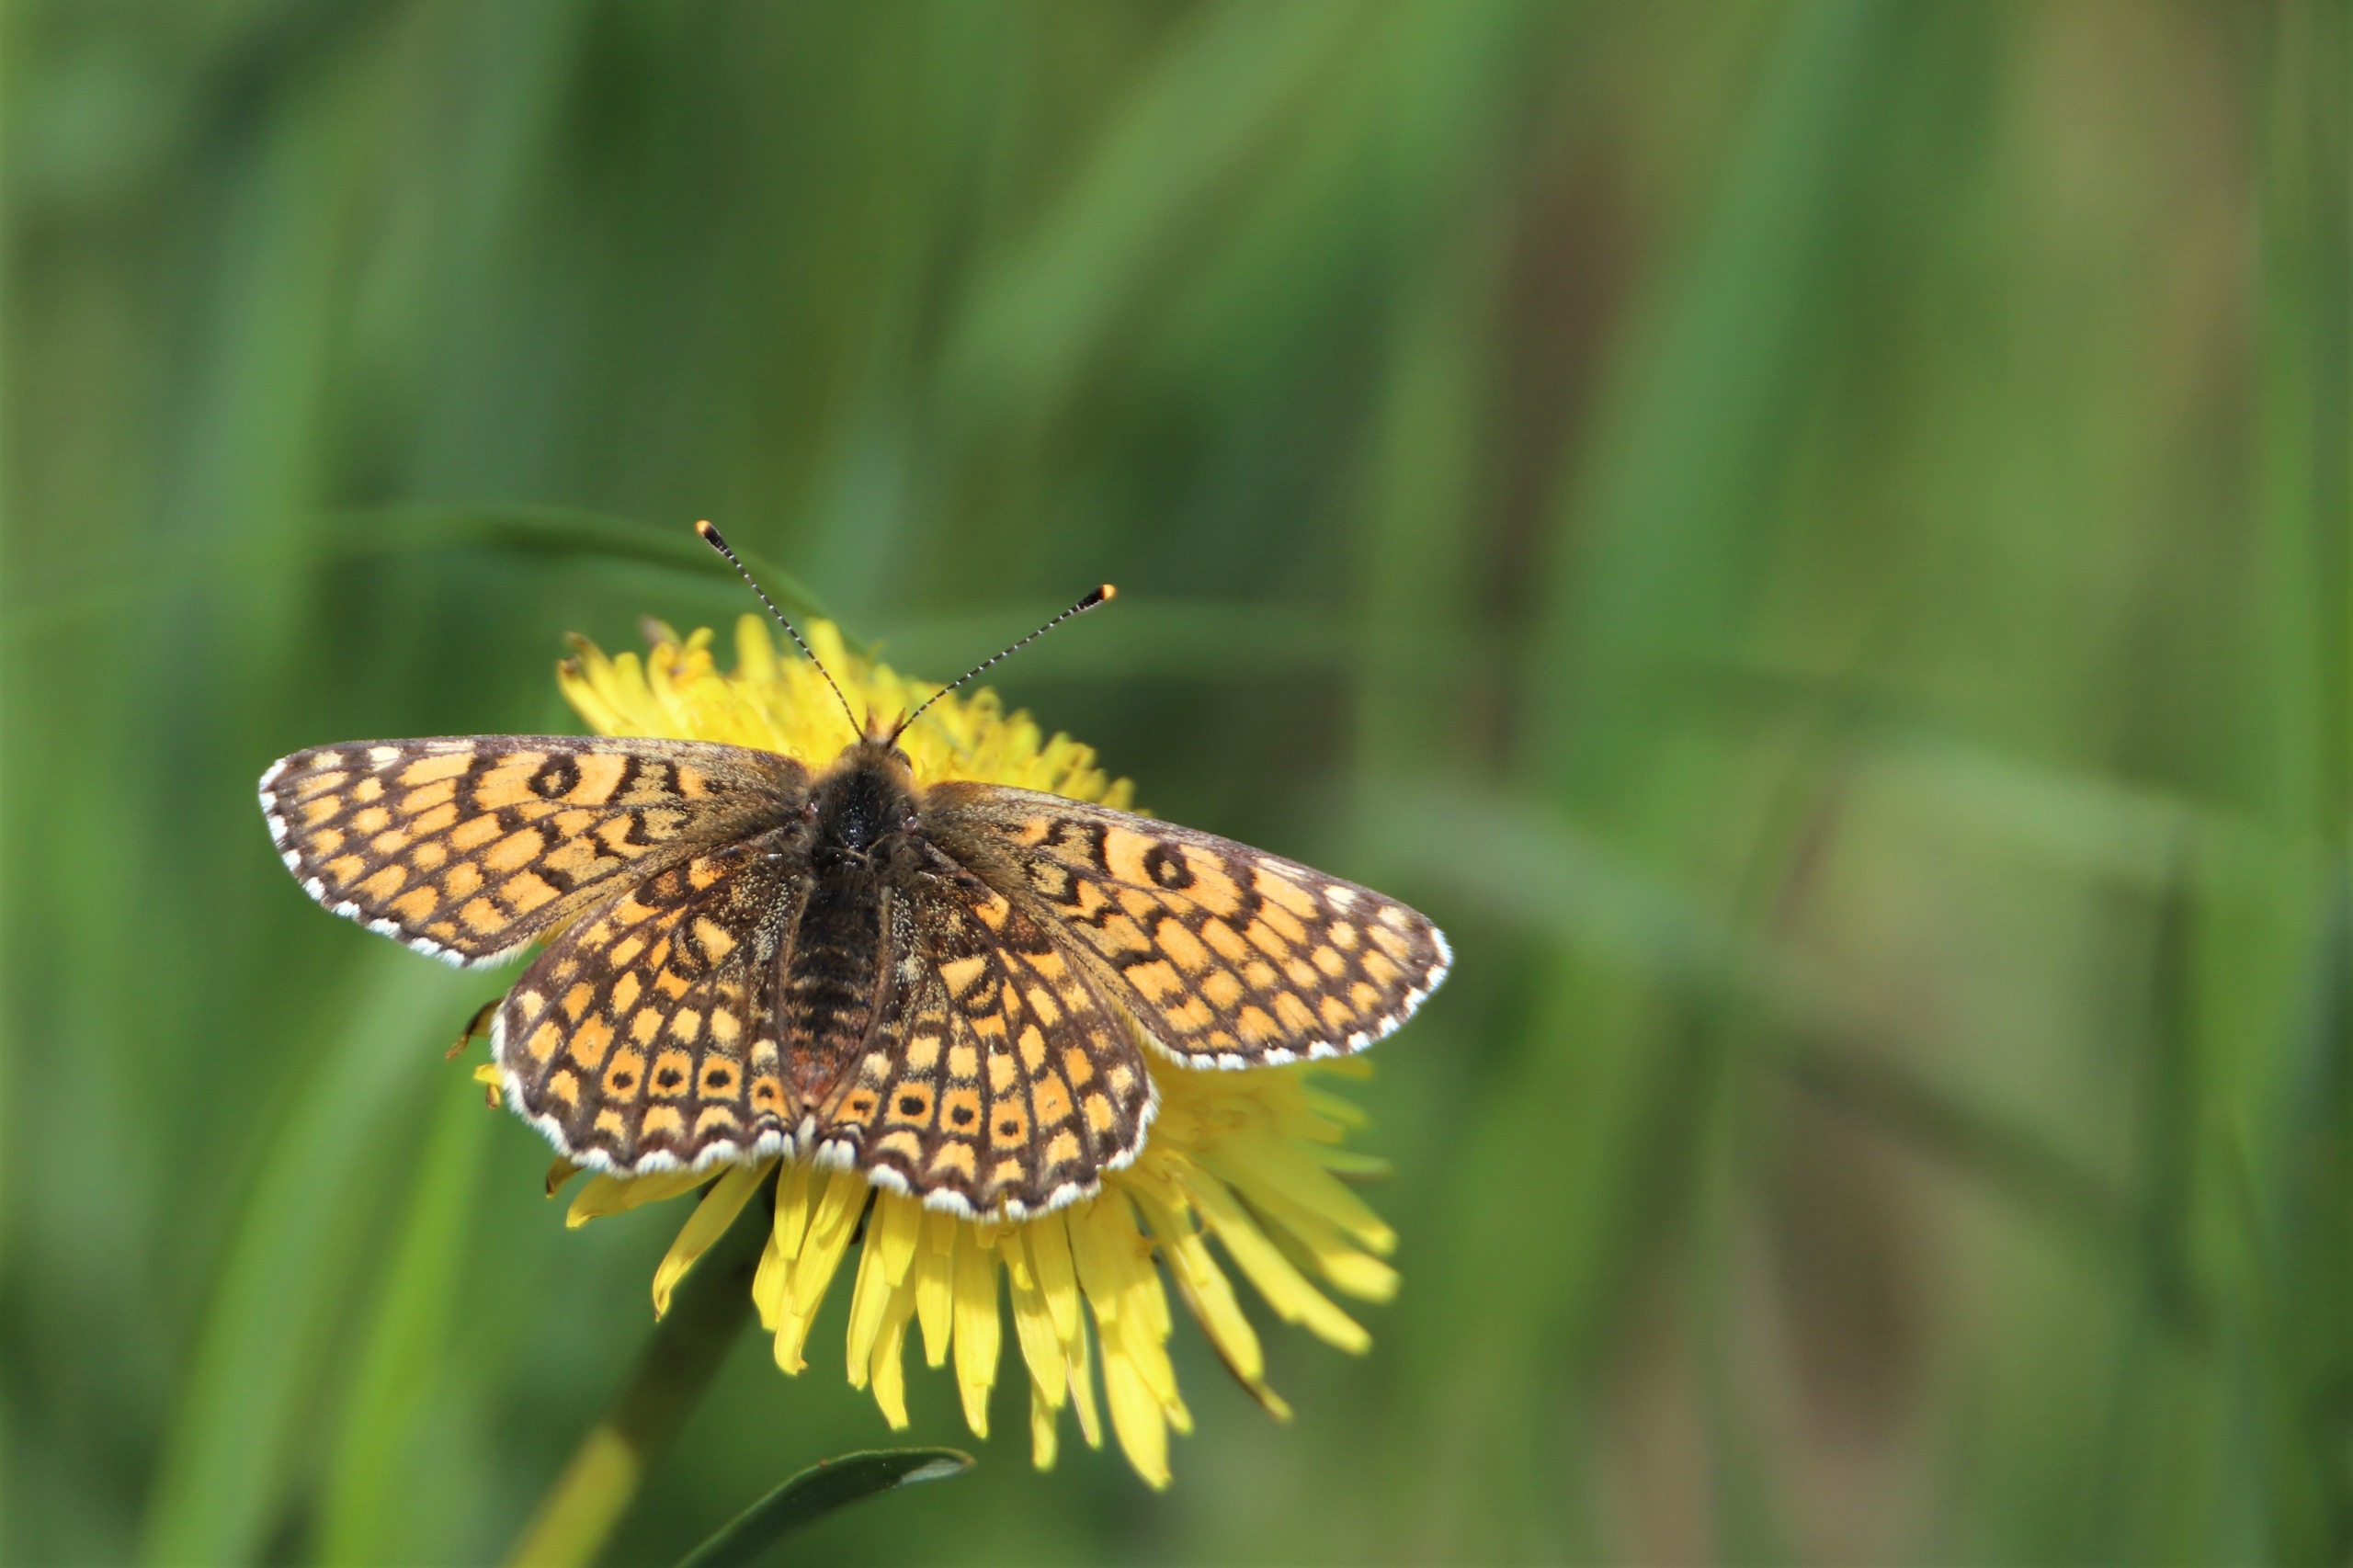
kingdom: Animalia
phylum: Arthropoda
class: Insecta
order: Lepidoptera
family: Nymphalidae
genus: Melitaea
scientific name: Melitaea cinxia
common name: Okkergul pletvinge
